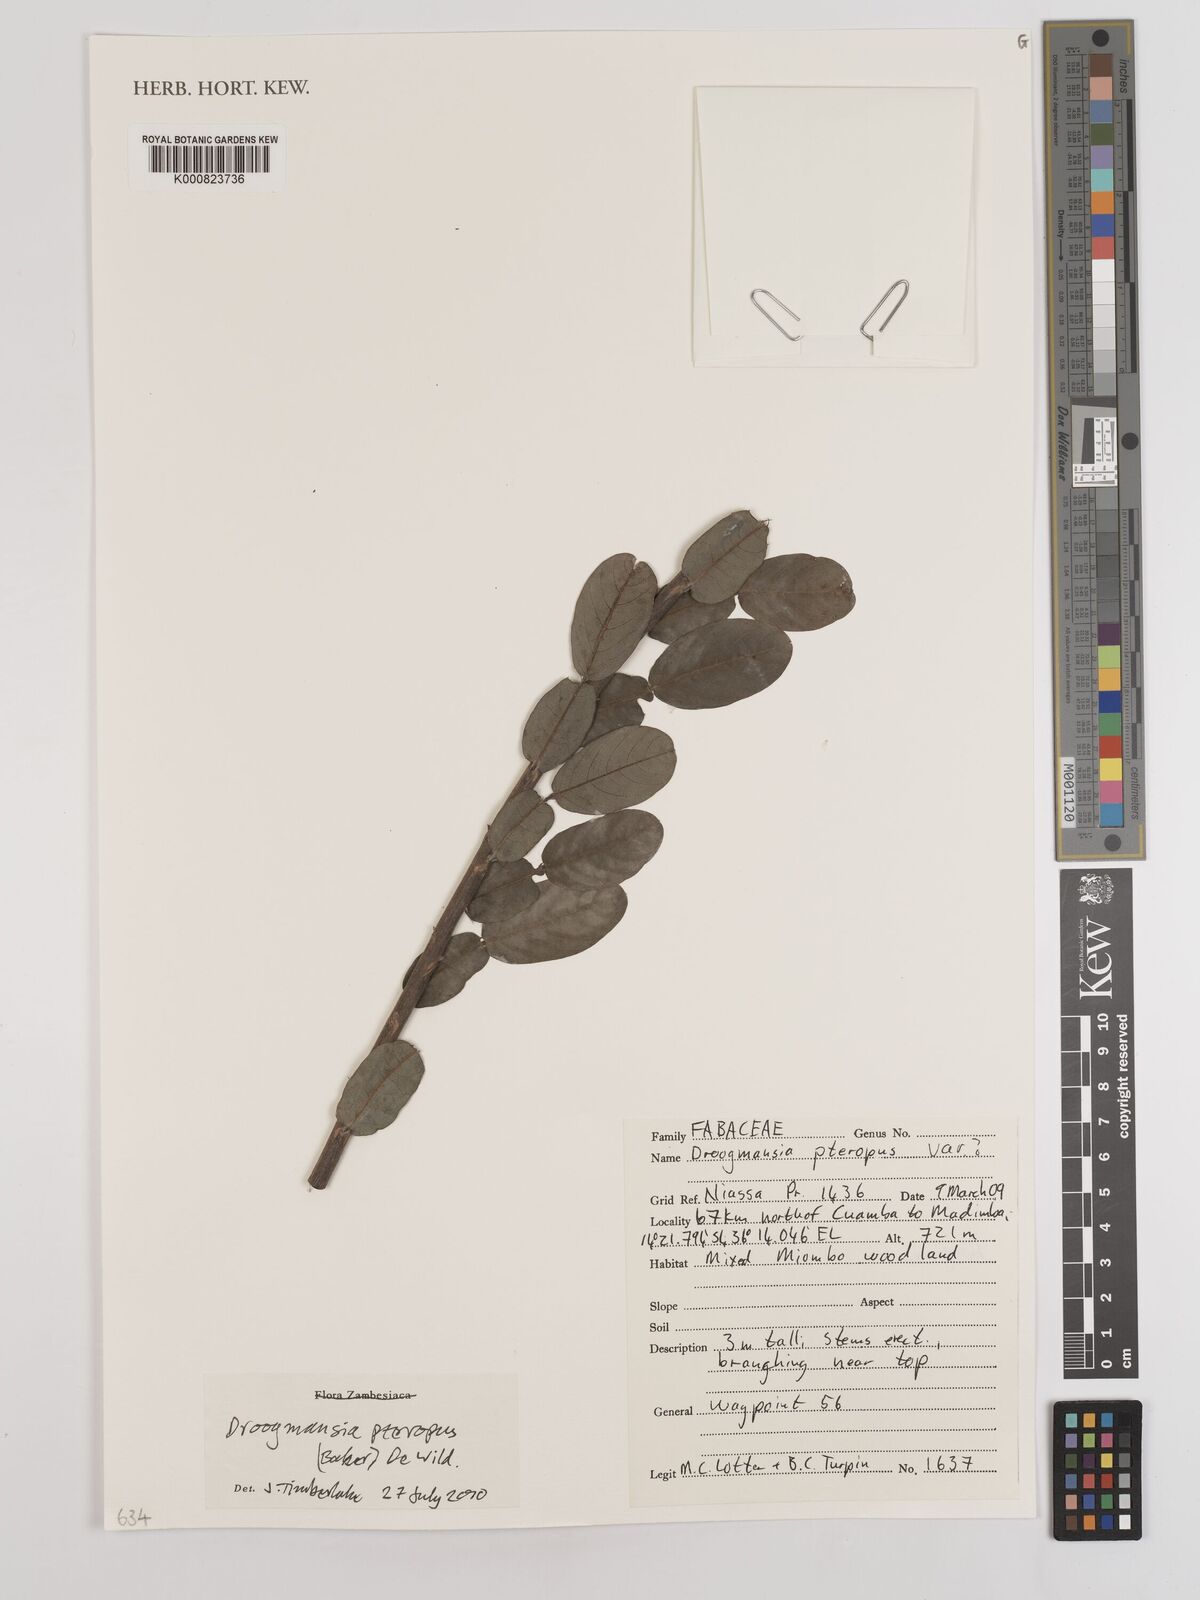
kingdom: Plantae
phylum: Tracheophyta
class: Magnoliopsida
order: Fabales
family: Fabaceae
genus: Droogmansia
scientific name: Droogmansia pteropus
